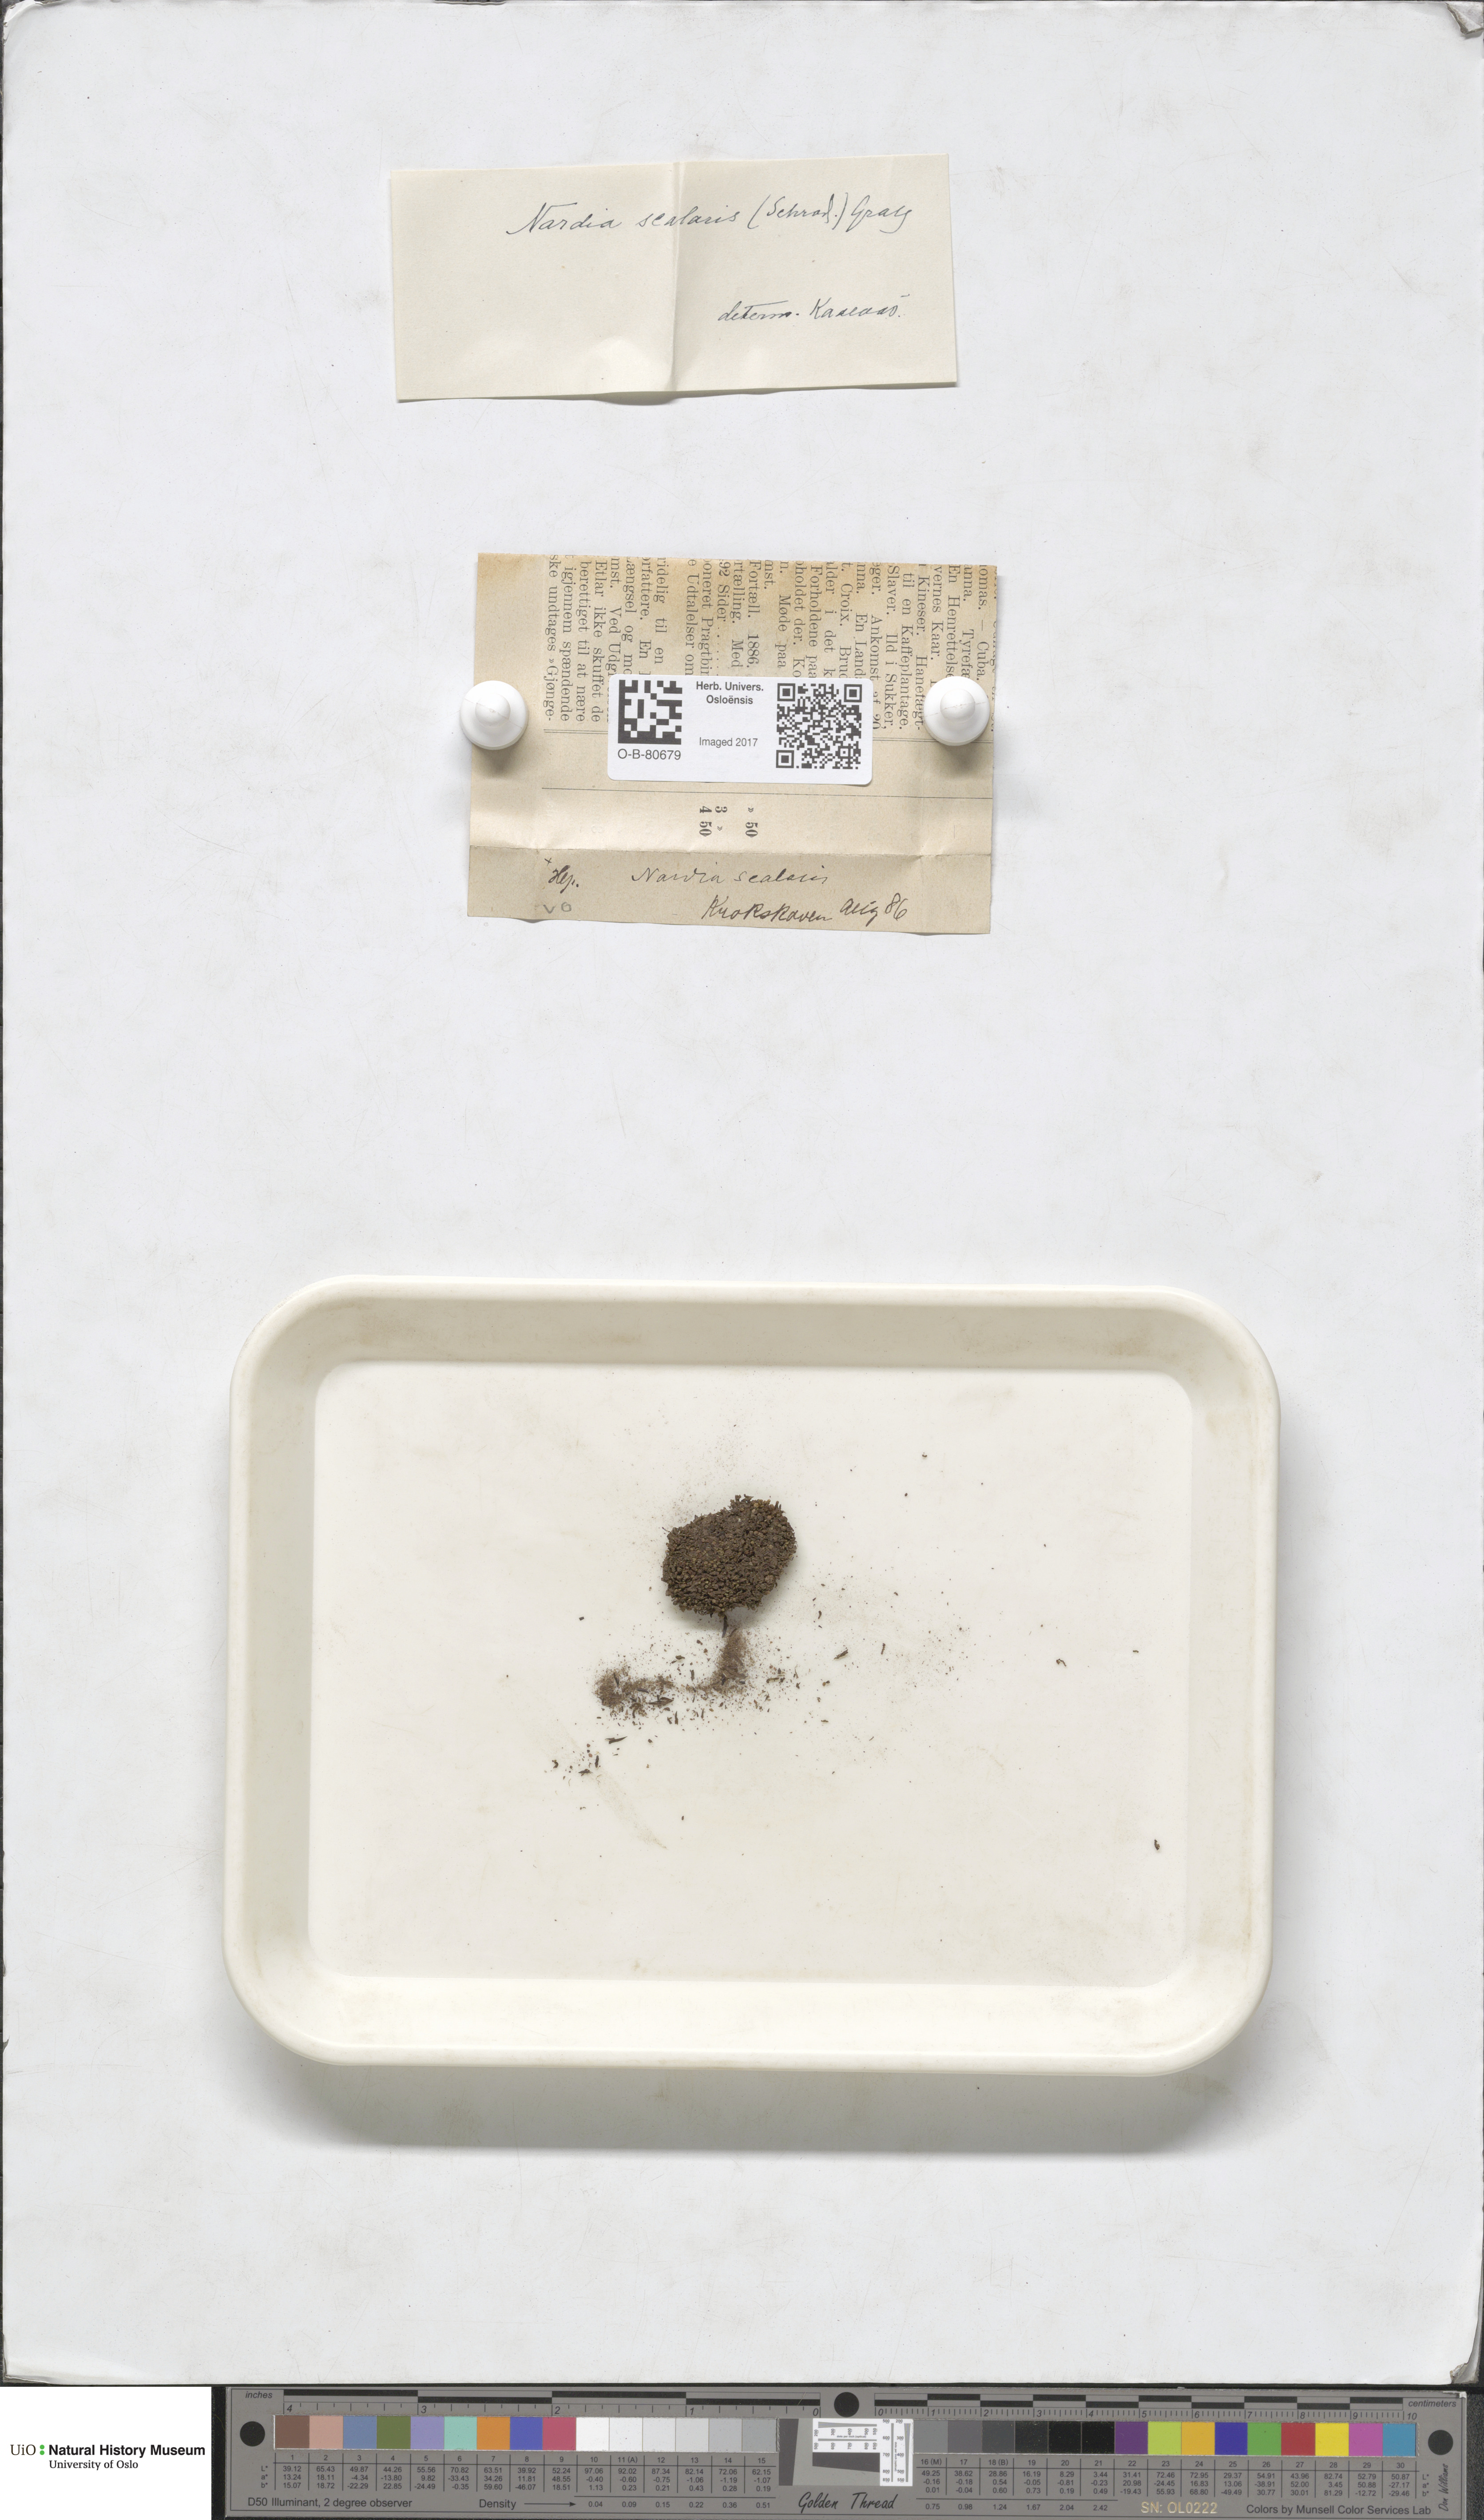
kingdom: Plantae
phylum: Marchantiophyta
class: Jungermanniopsida
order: Jungermanniales
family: Gymnomitriaceae
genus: Nardia
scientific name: Nardia scalaris
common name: Ladder flapwort
